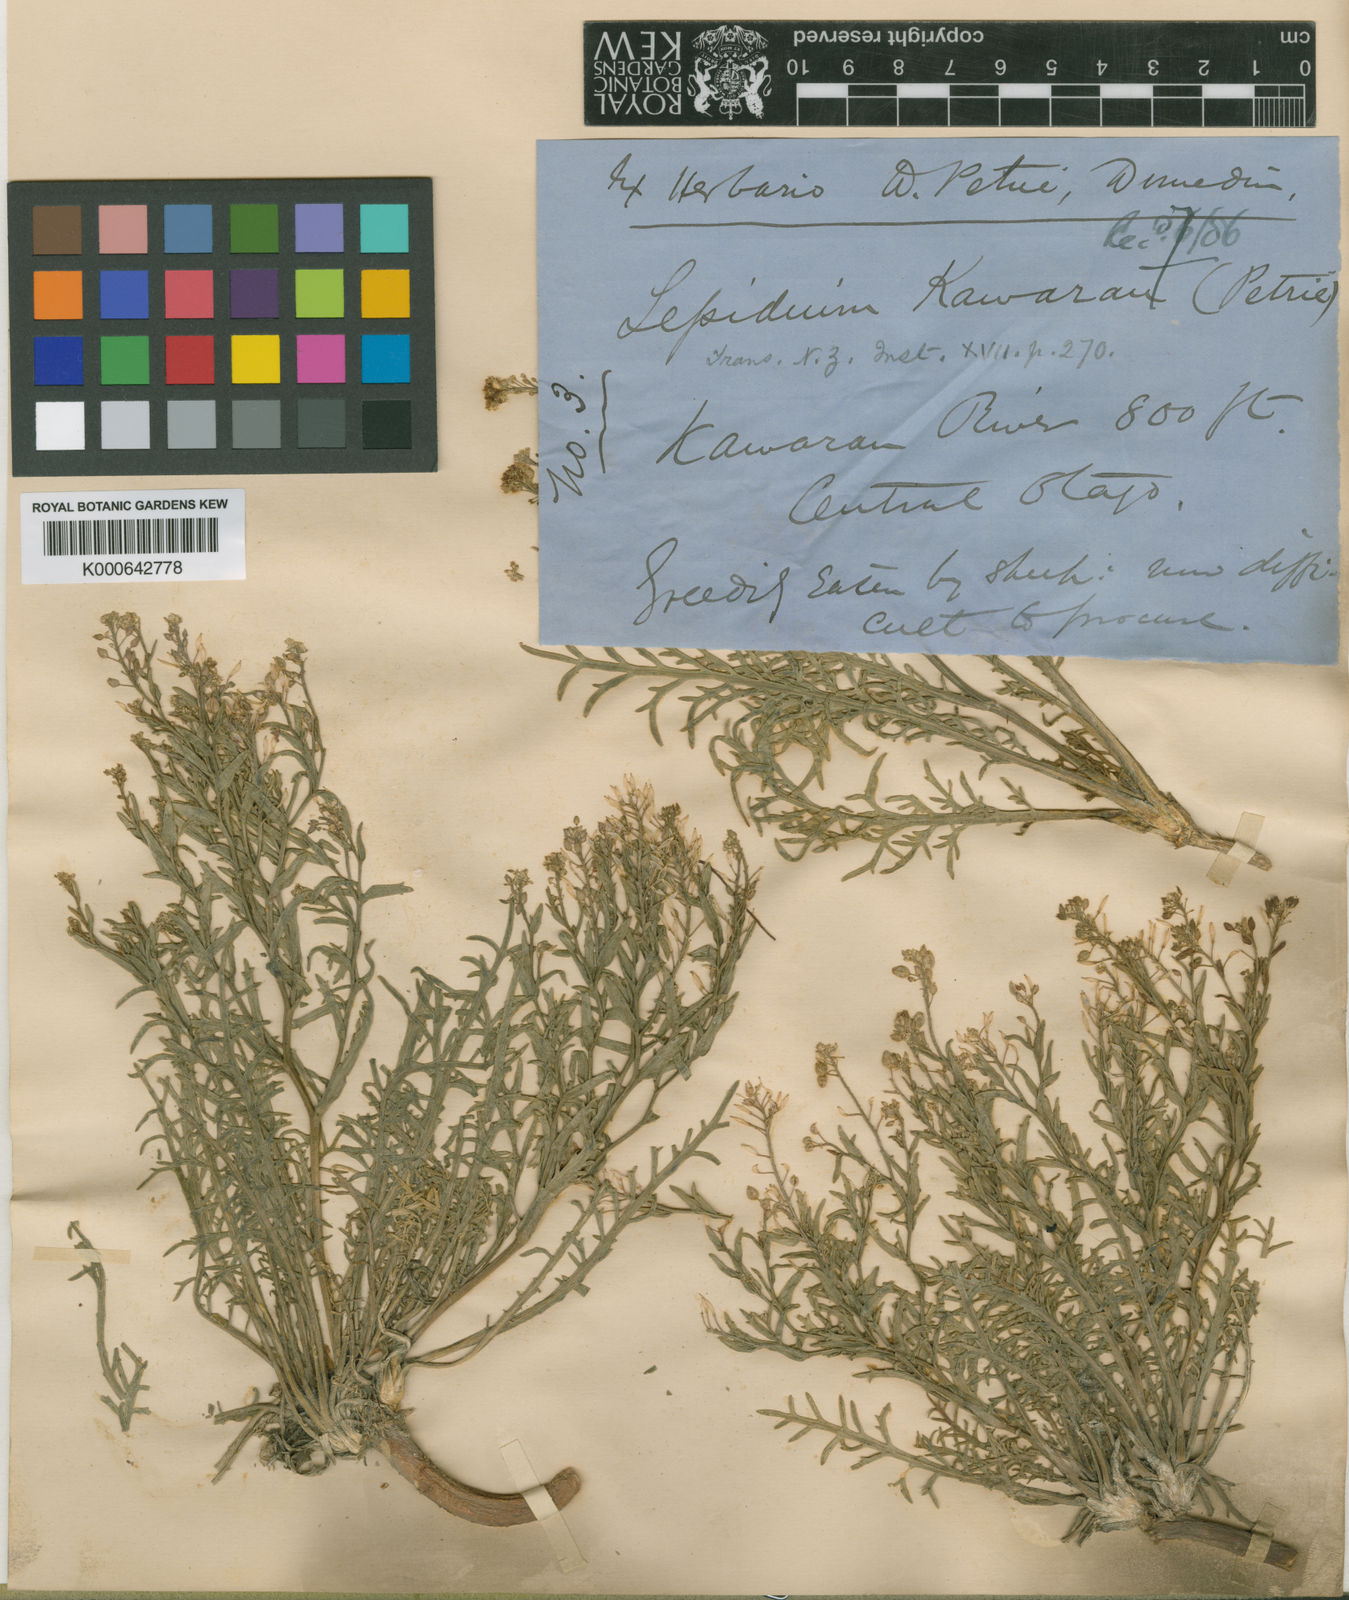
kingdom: Plantae
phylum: Tracheophyta
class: Magnoliopsida
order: Brassicales
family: Brassicaceae
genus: Lepidium
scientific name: Lepidium kawarau
